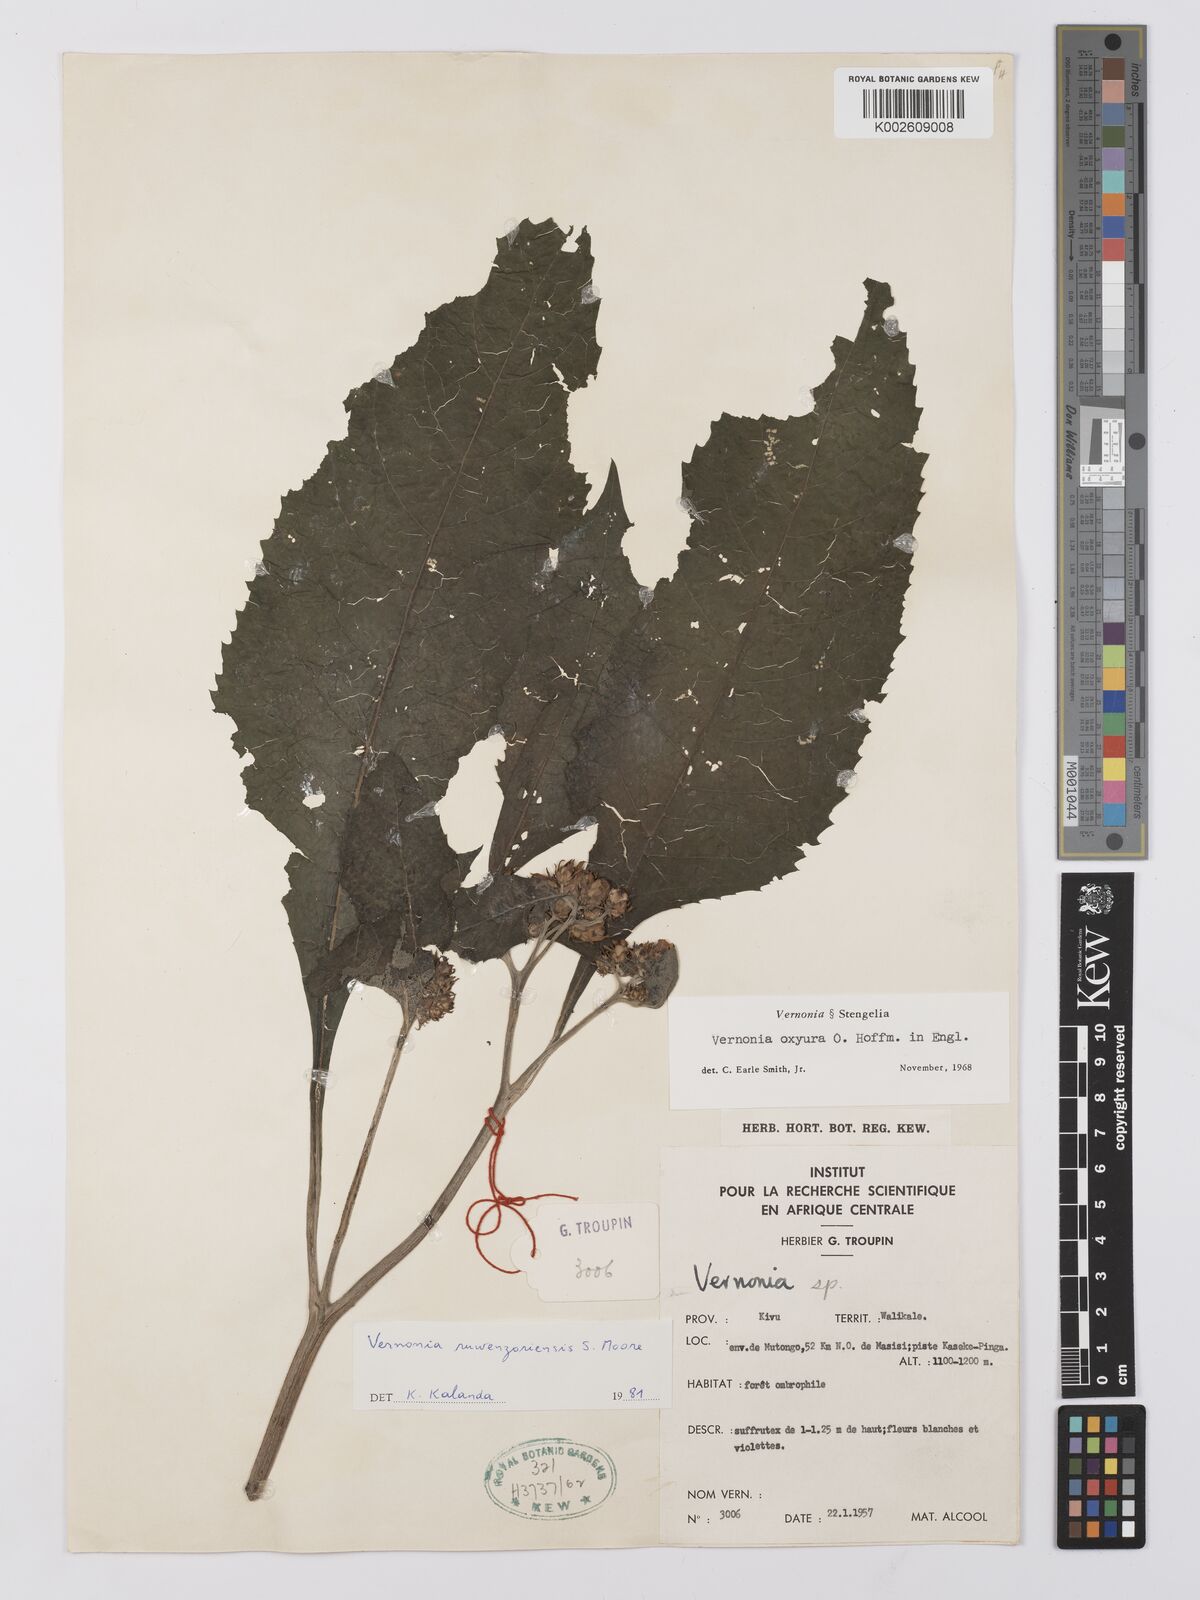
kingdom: Plantae
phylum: Tracheophyta
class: Magnoliopsida
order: Asterales
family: Asteraceae
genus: Vernonia
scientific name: Vernonia ruwenzoriensis
